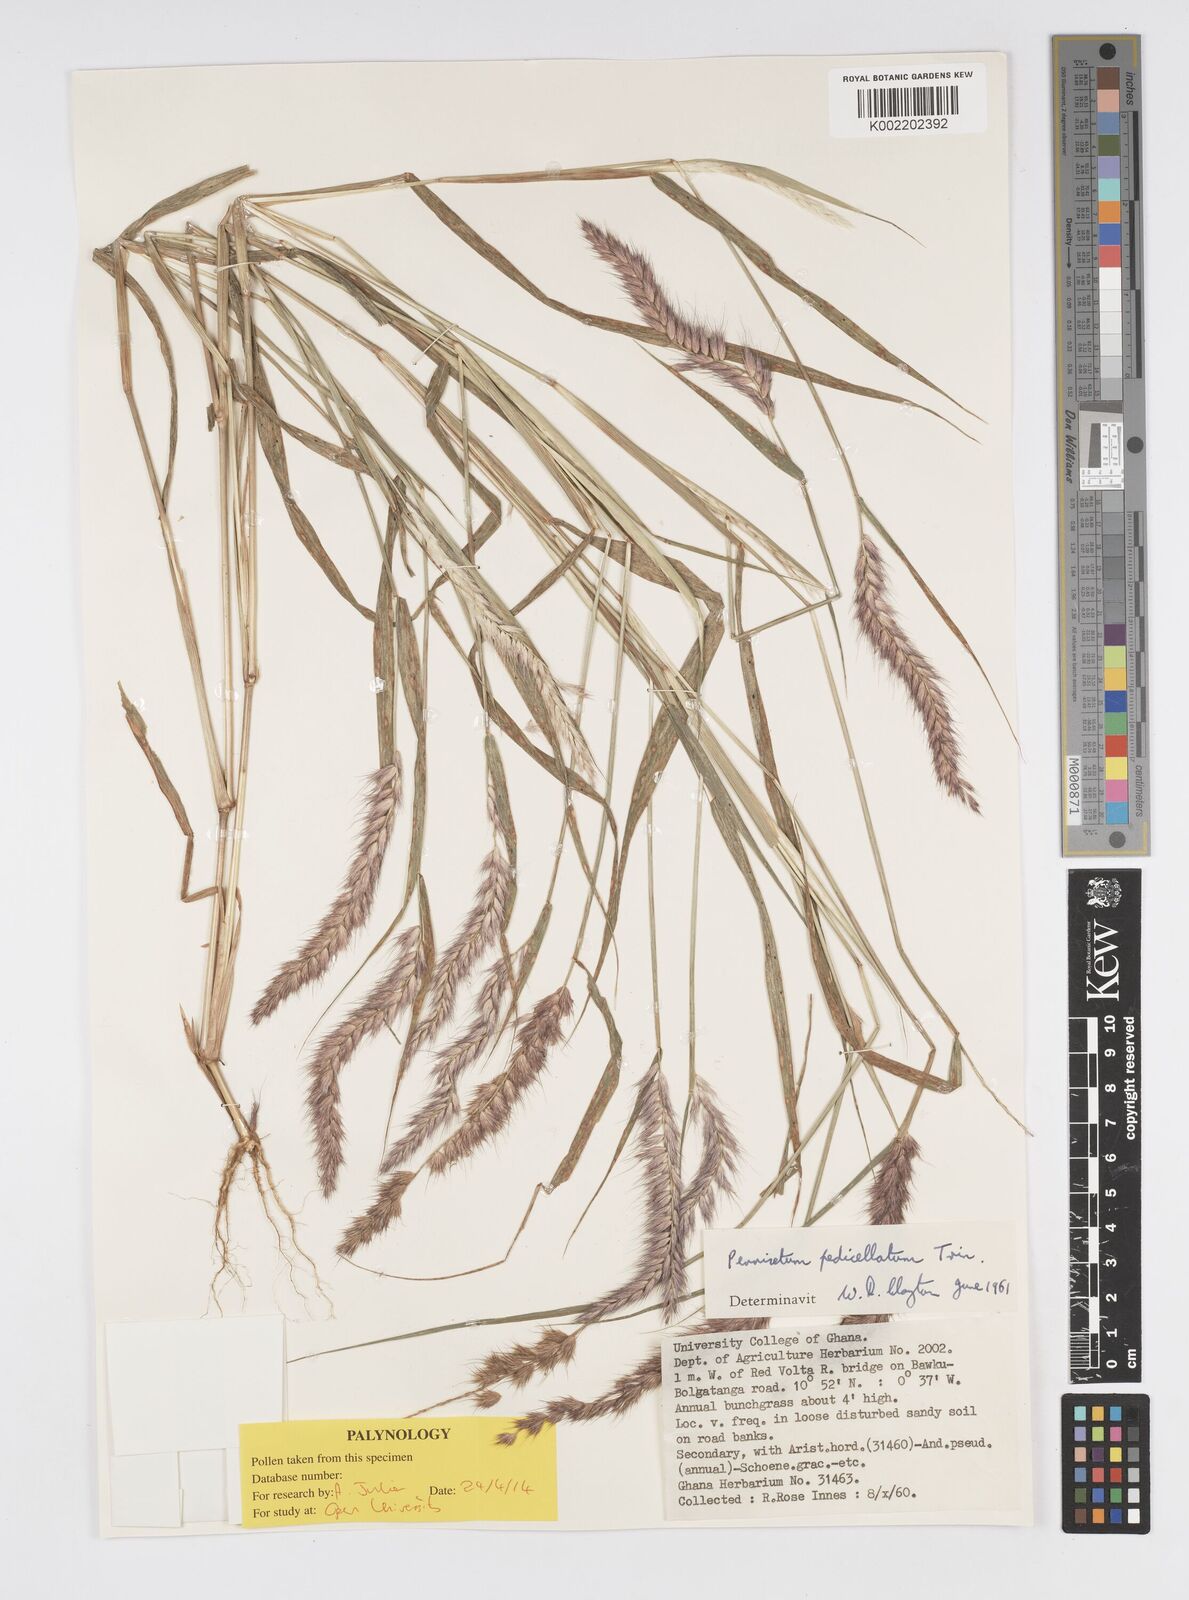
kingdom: Plantae
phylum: Tracheophyta
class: Liliopsida
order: Poales
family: Poaceae
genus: Cenchrus
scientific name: Cenchrus pedicellatus
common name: Hairy fountain grass
